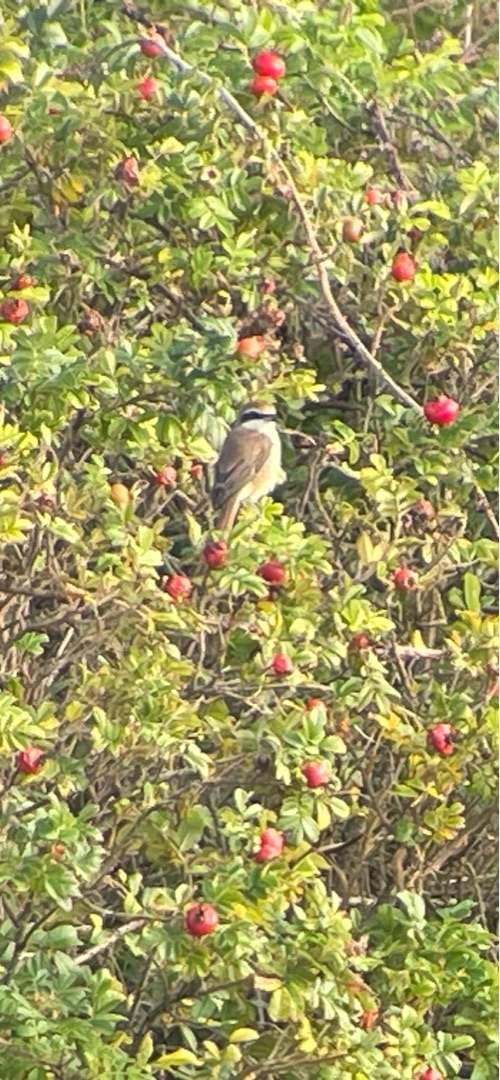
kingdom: Animalia
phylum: Chordata
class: Aves
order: Passeriformes
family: Laniidae
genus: Lanius
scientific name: Lanius cristatus
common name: Brun tornskade
